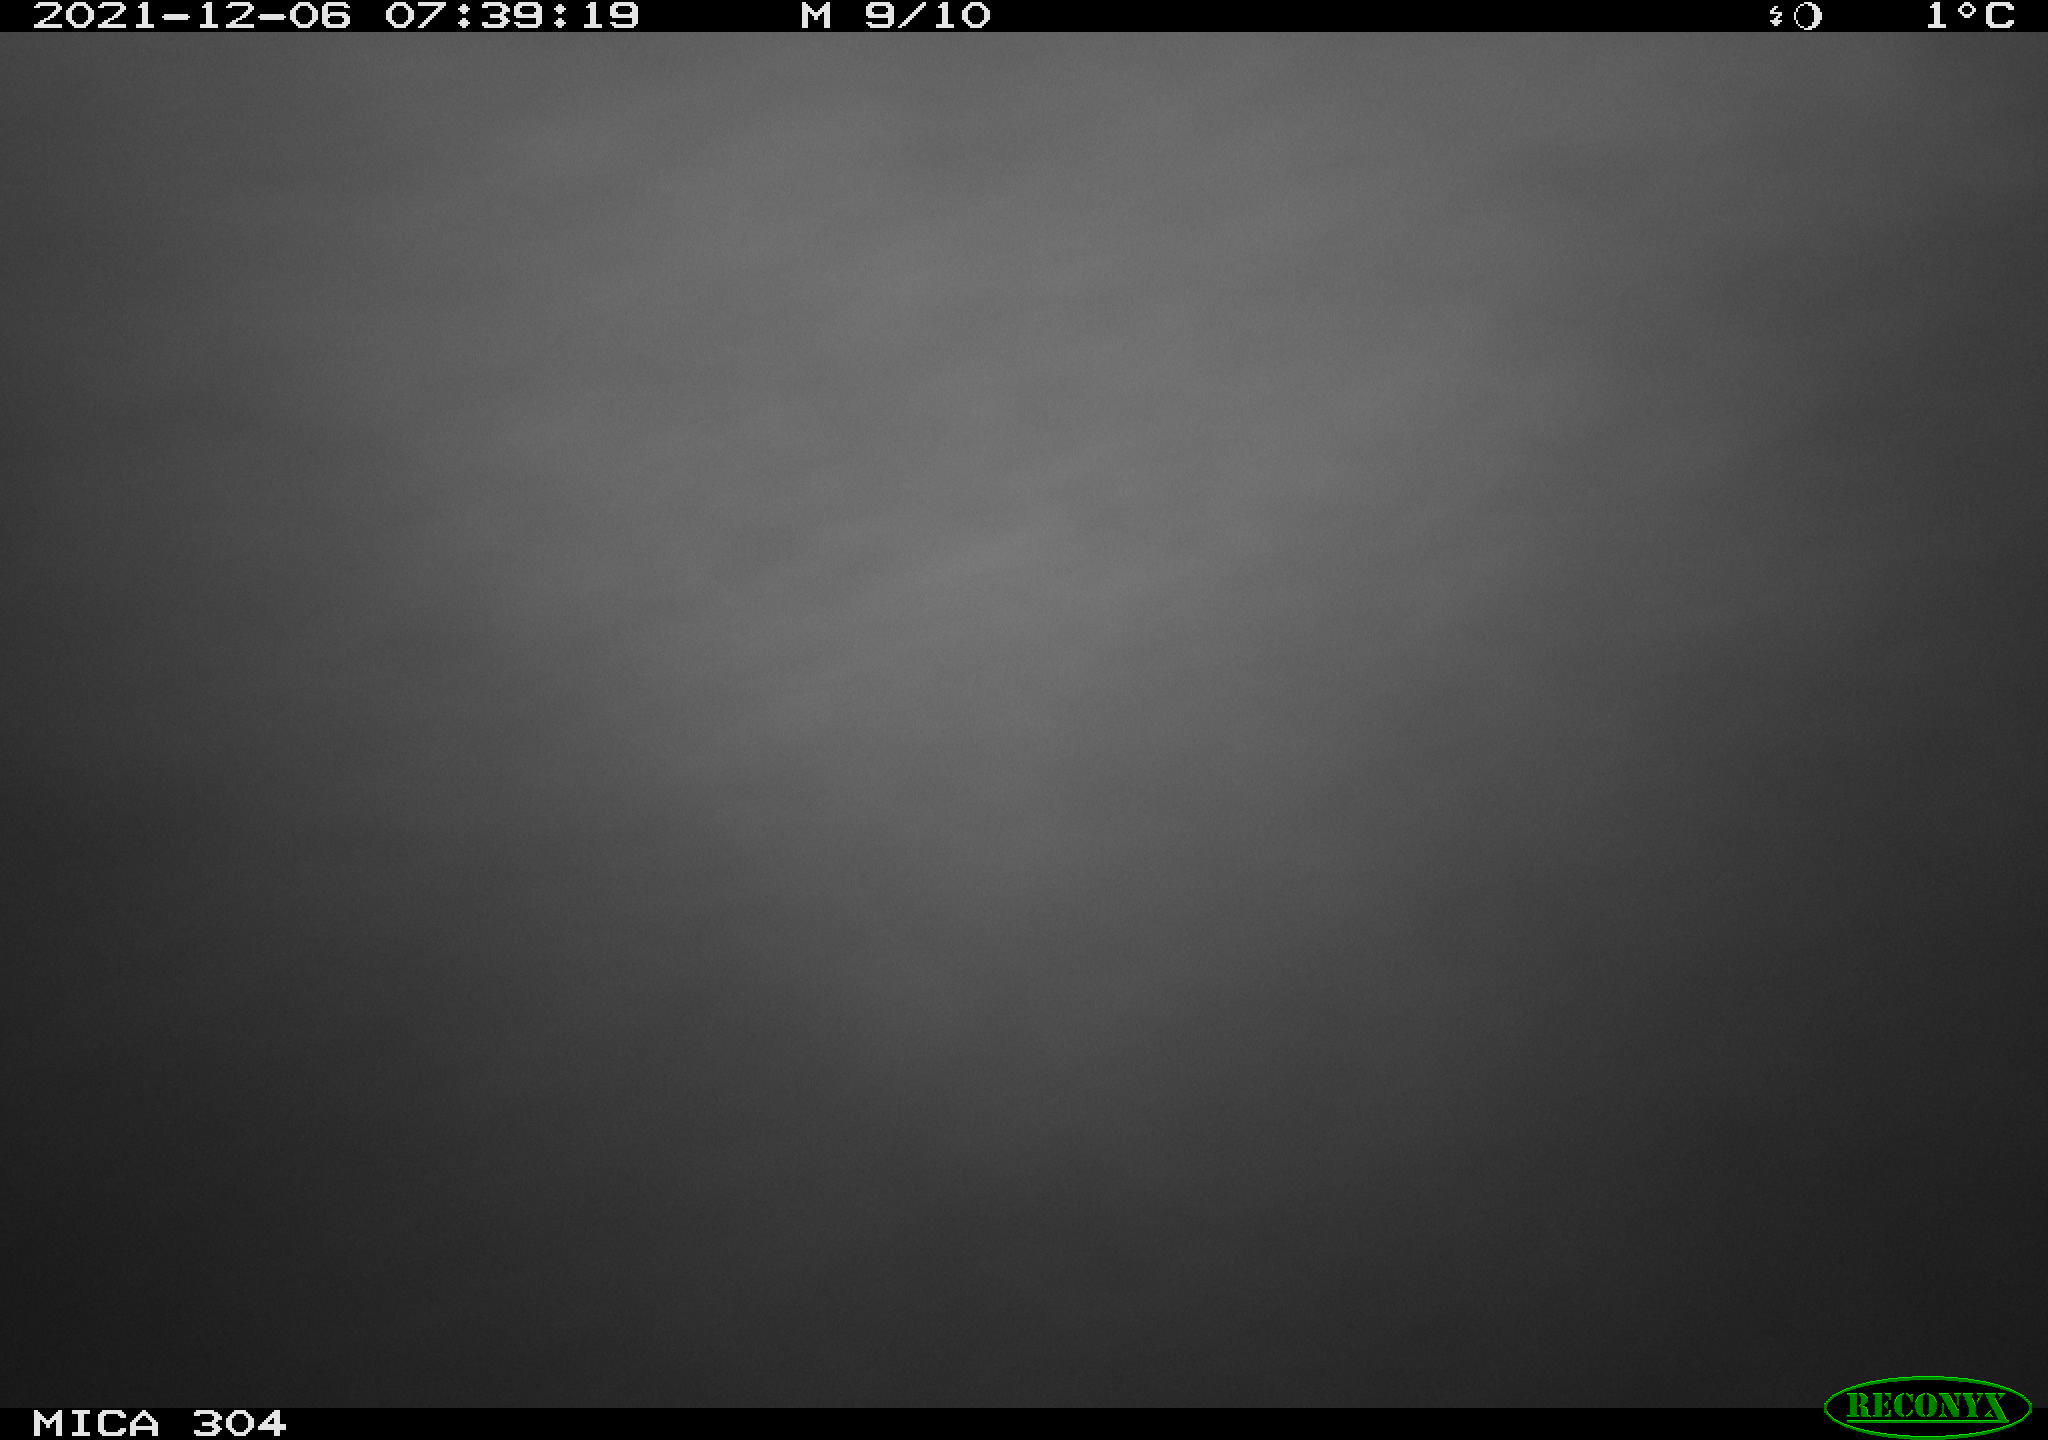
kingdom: Animalia
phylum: Chordata
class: Aves
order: Gruiformes
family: Rallidae
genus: Fulica
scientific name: Fulica atra
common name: Eurasian coot
